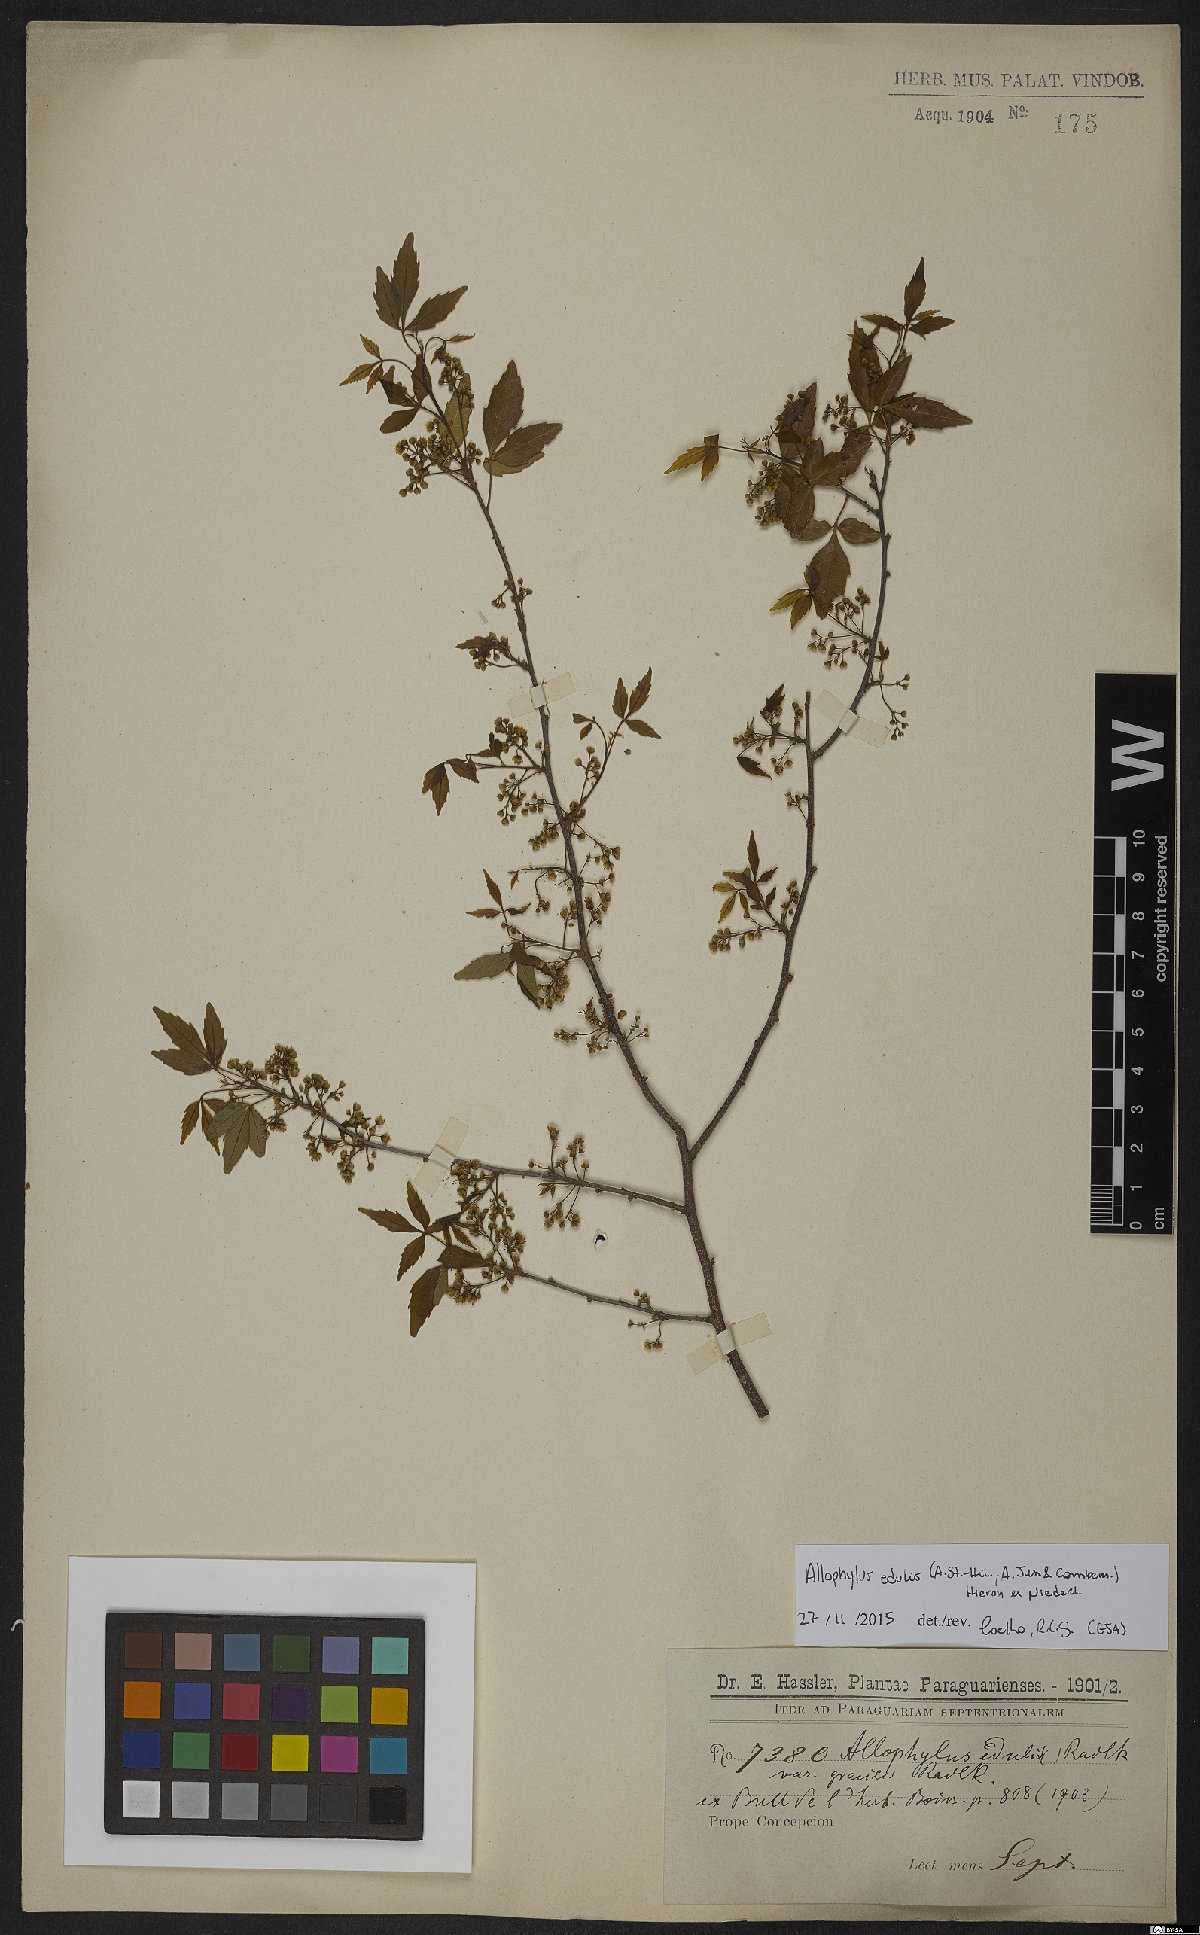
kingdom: Plantae
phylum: Tracheophyta
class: Magnoliopsida
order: Sapindales
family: Sapindaceae
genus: Allophylus
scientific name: Allophylus edulis
